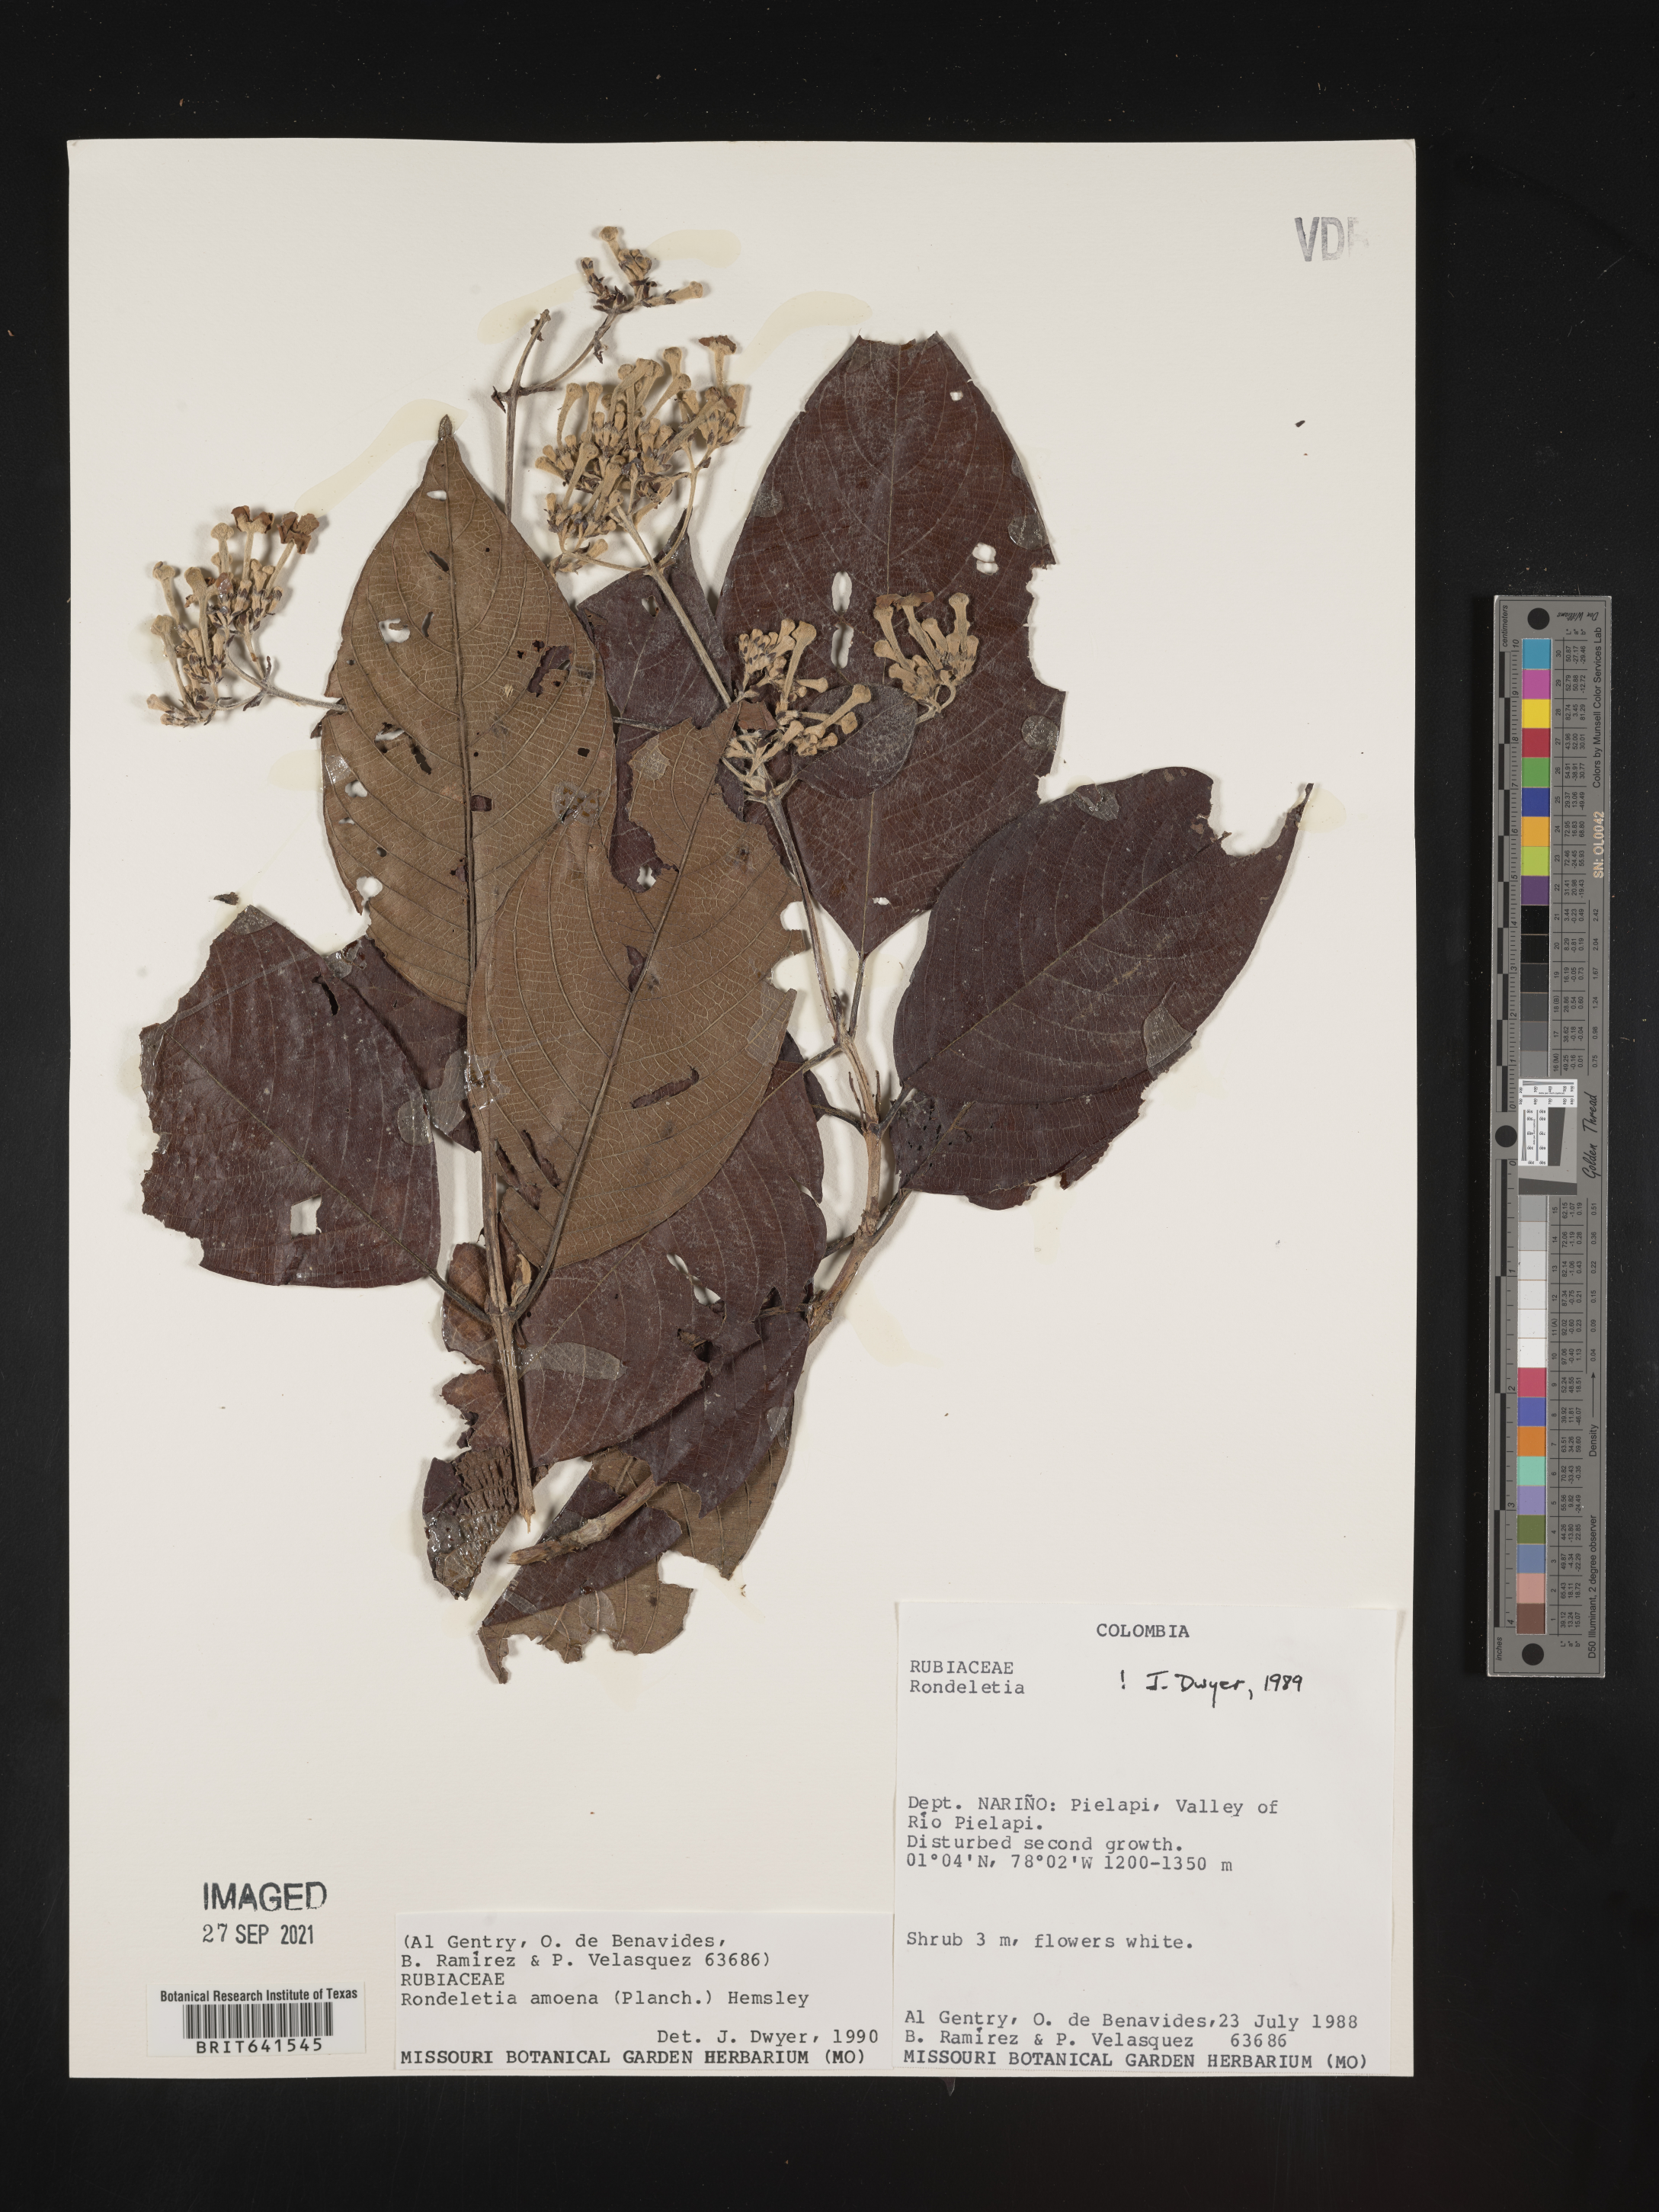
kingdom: Plantae
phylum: Tracheophyta
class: Magnoliopsida
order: Gentianales
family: Rubiaceae
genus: Rondeletia
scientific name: Rondeletia
